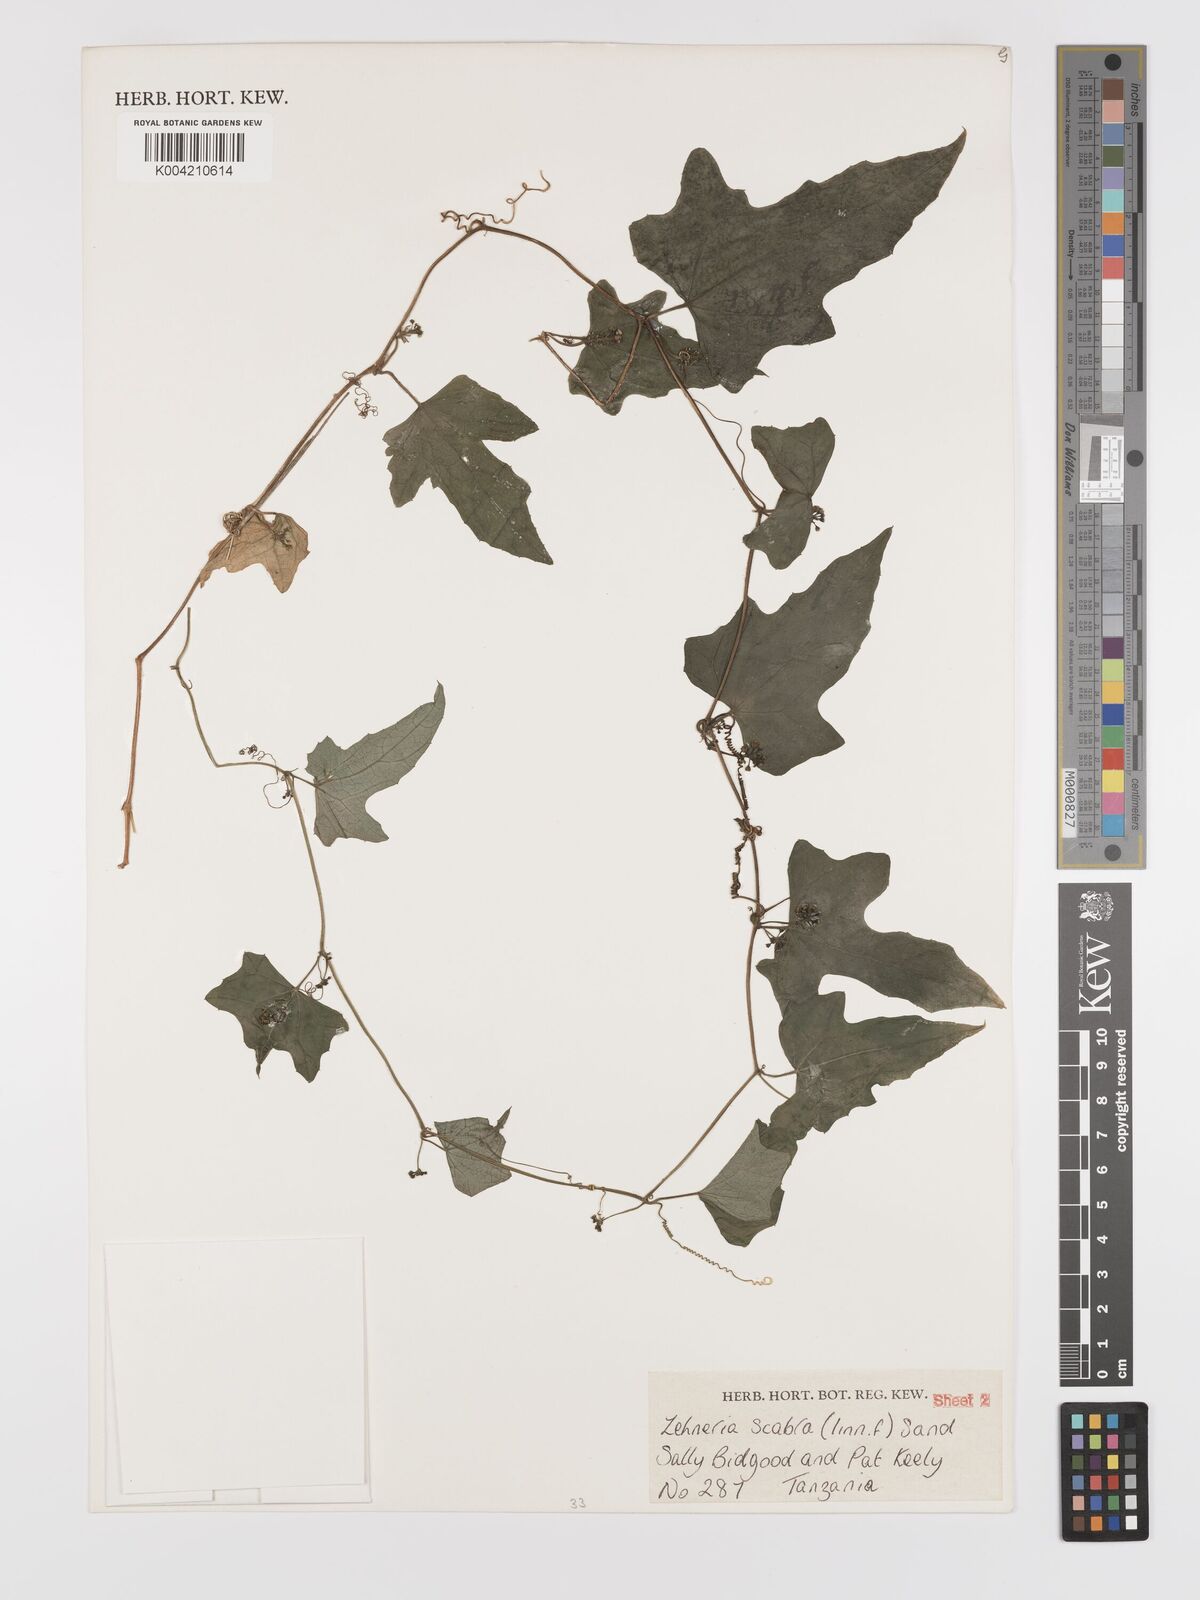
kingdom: Plantae
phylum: Tracheophyta
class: Magnoliopsida
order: Cucurbitales
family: Cucurbitaceae
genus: Zehneria
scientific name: Zehneria oligosperma
